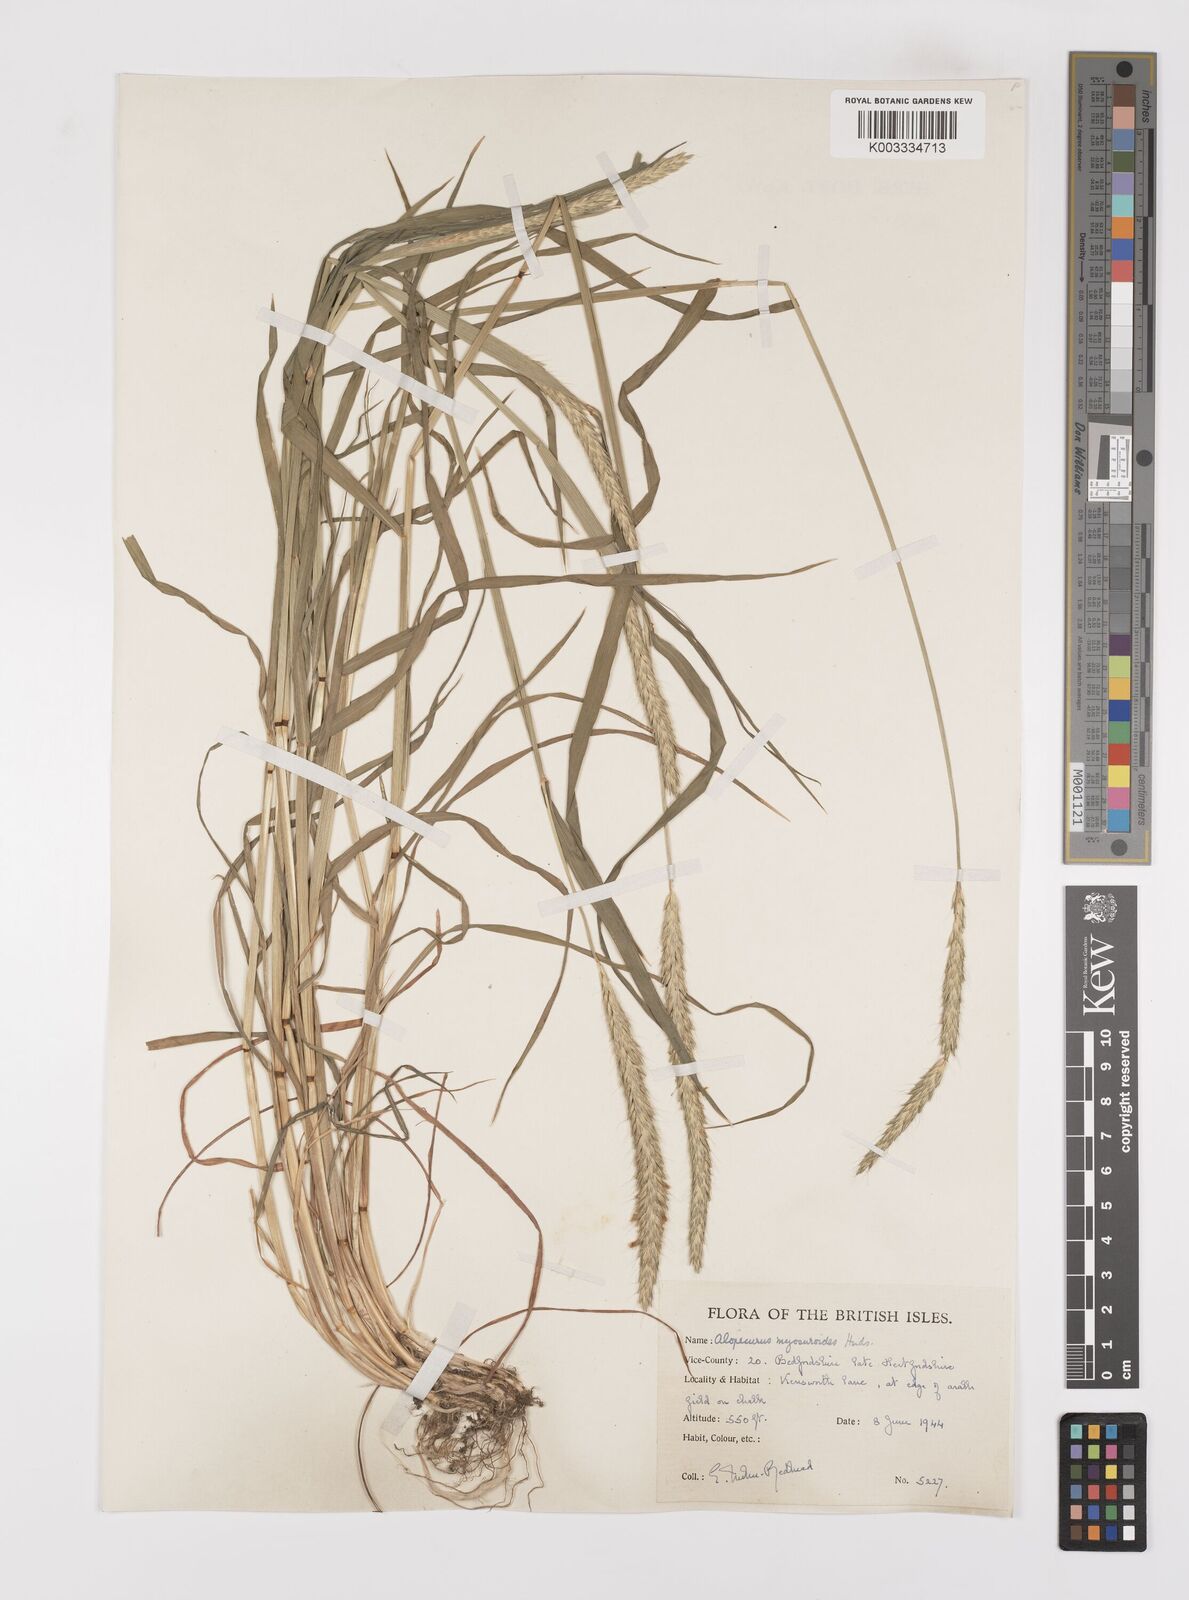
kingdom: Plantae
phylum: Tracheophyta
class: Liliopsida
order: Poales
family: Poaceae
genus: Alopecurus
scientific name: Alopecurus myosuroides
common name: Black-grass
